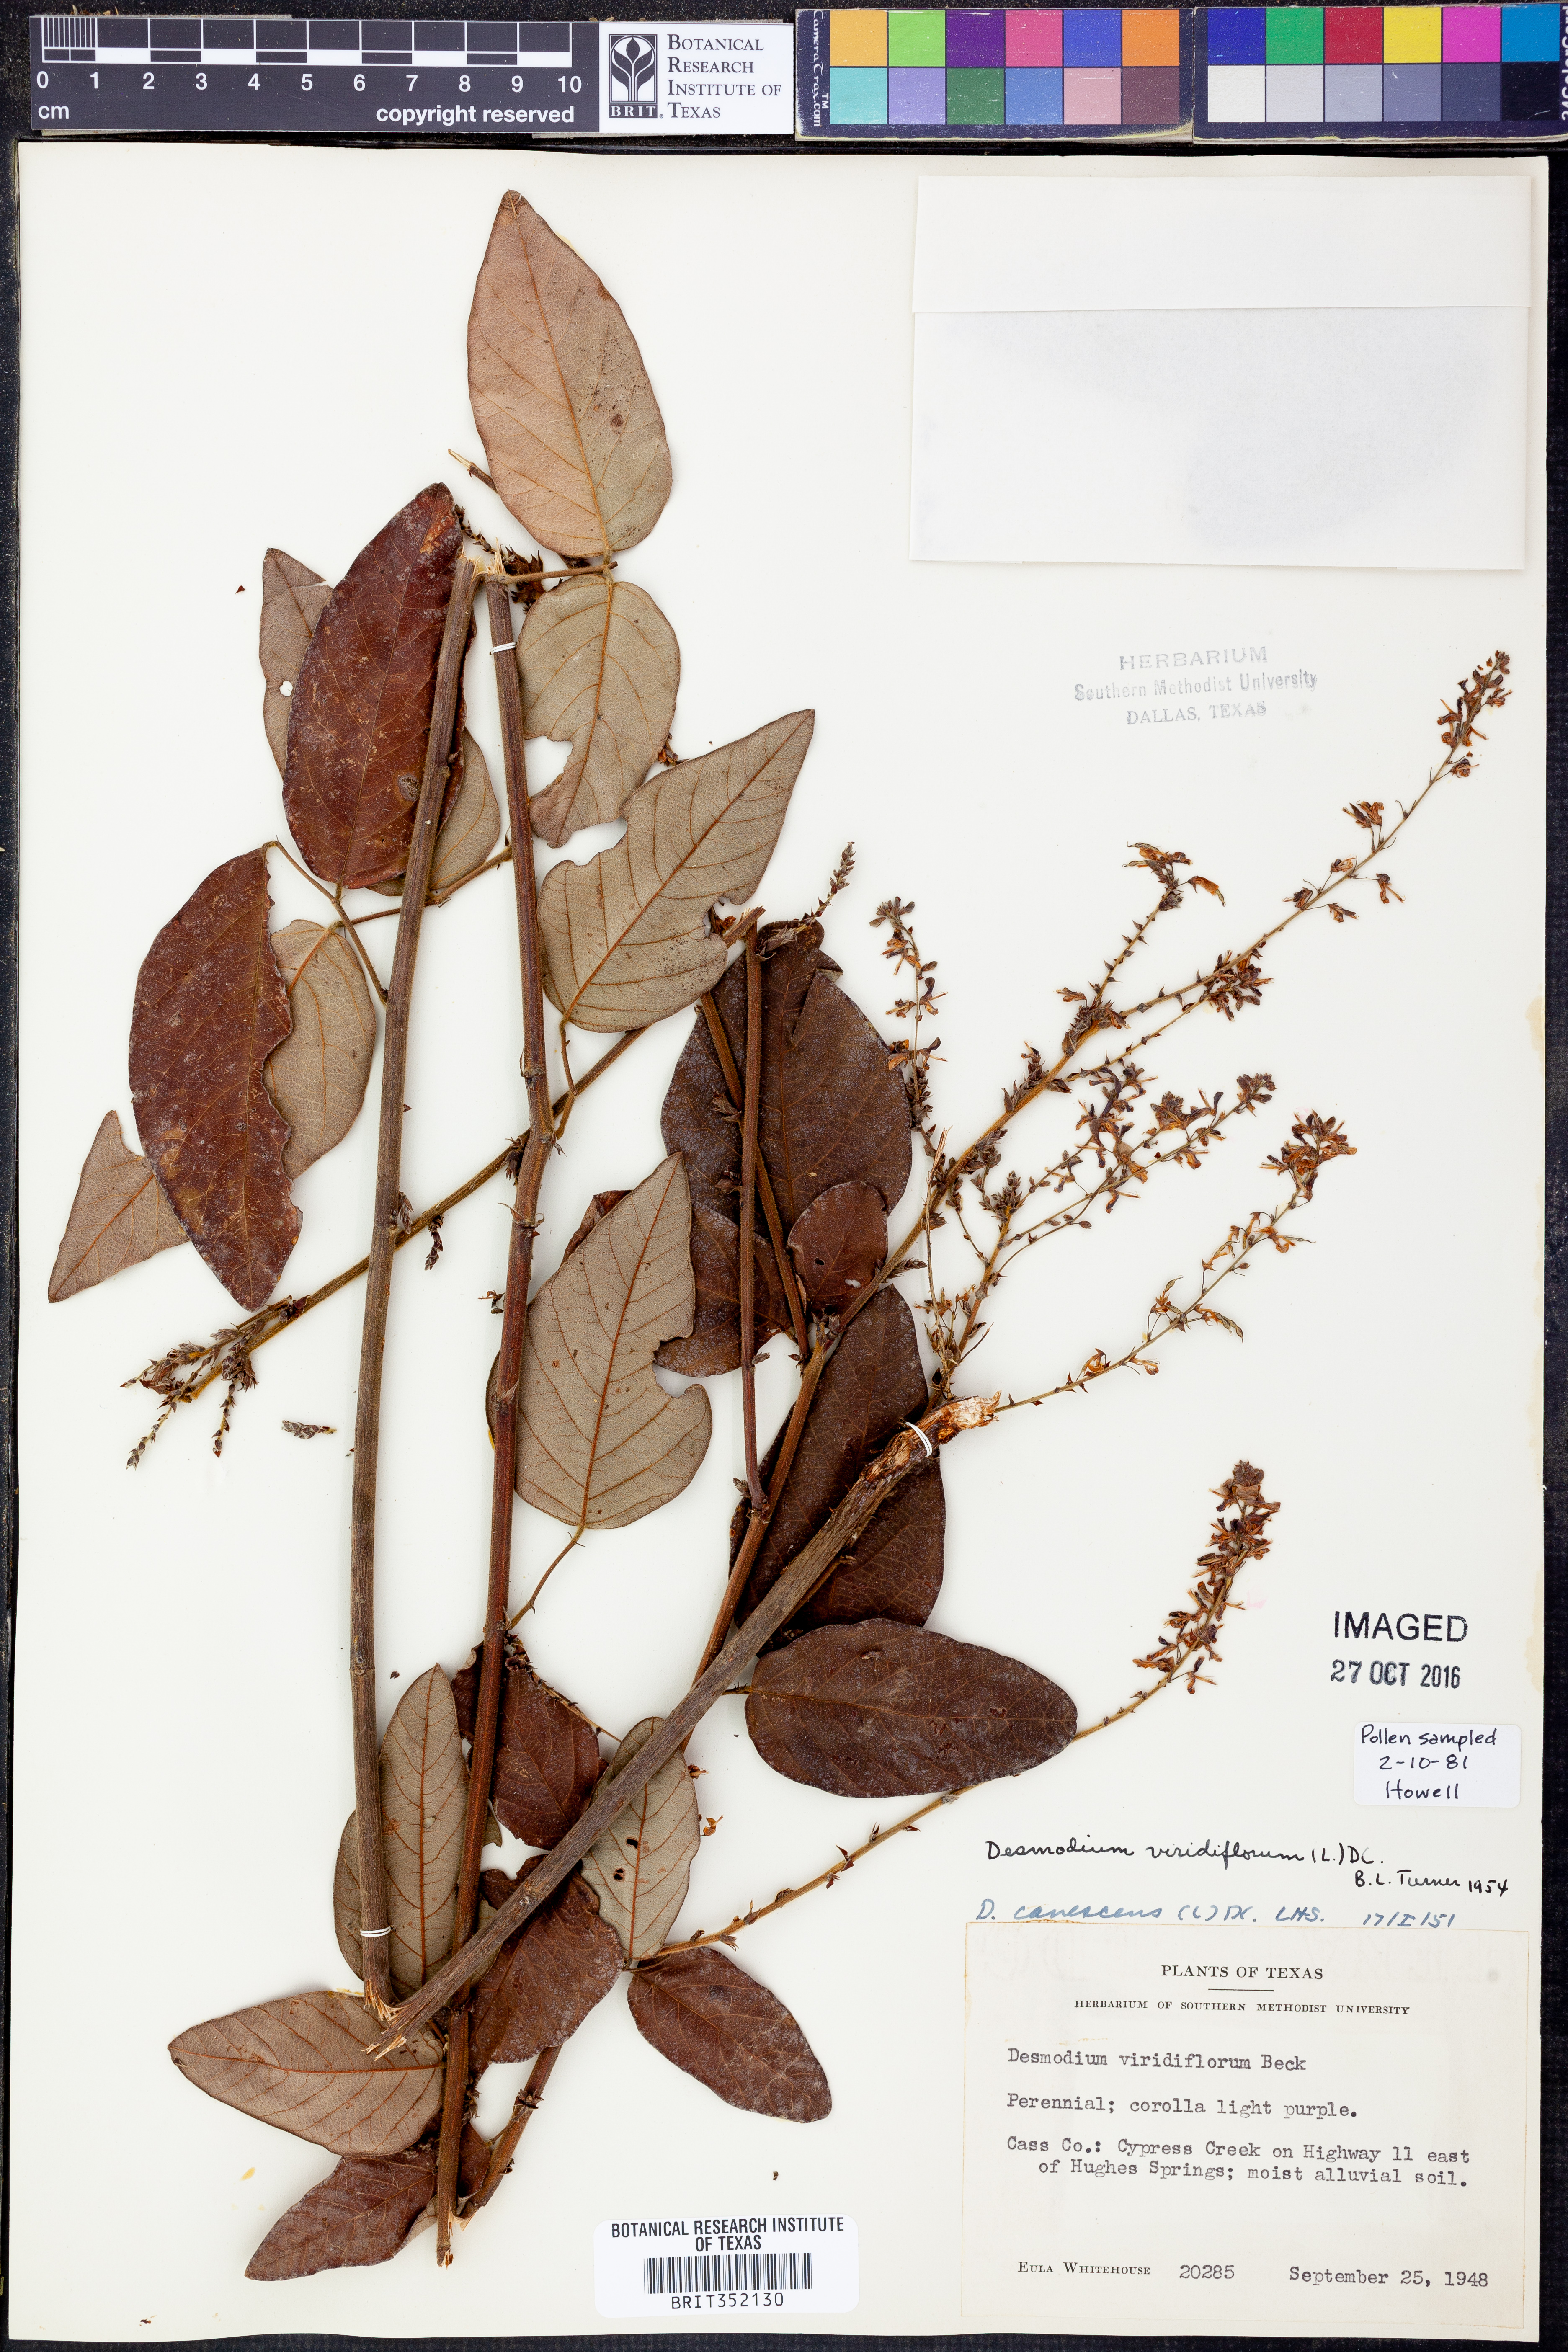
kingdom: Plantae
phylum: Tracheophyta
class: Magnoliopsida
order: Fabales
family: Fabaceae
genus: Desmodium
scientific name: Desmodium viridiflorum
